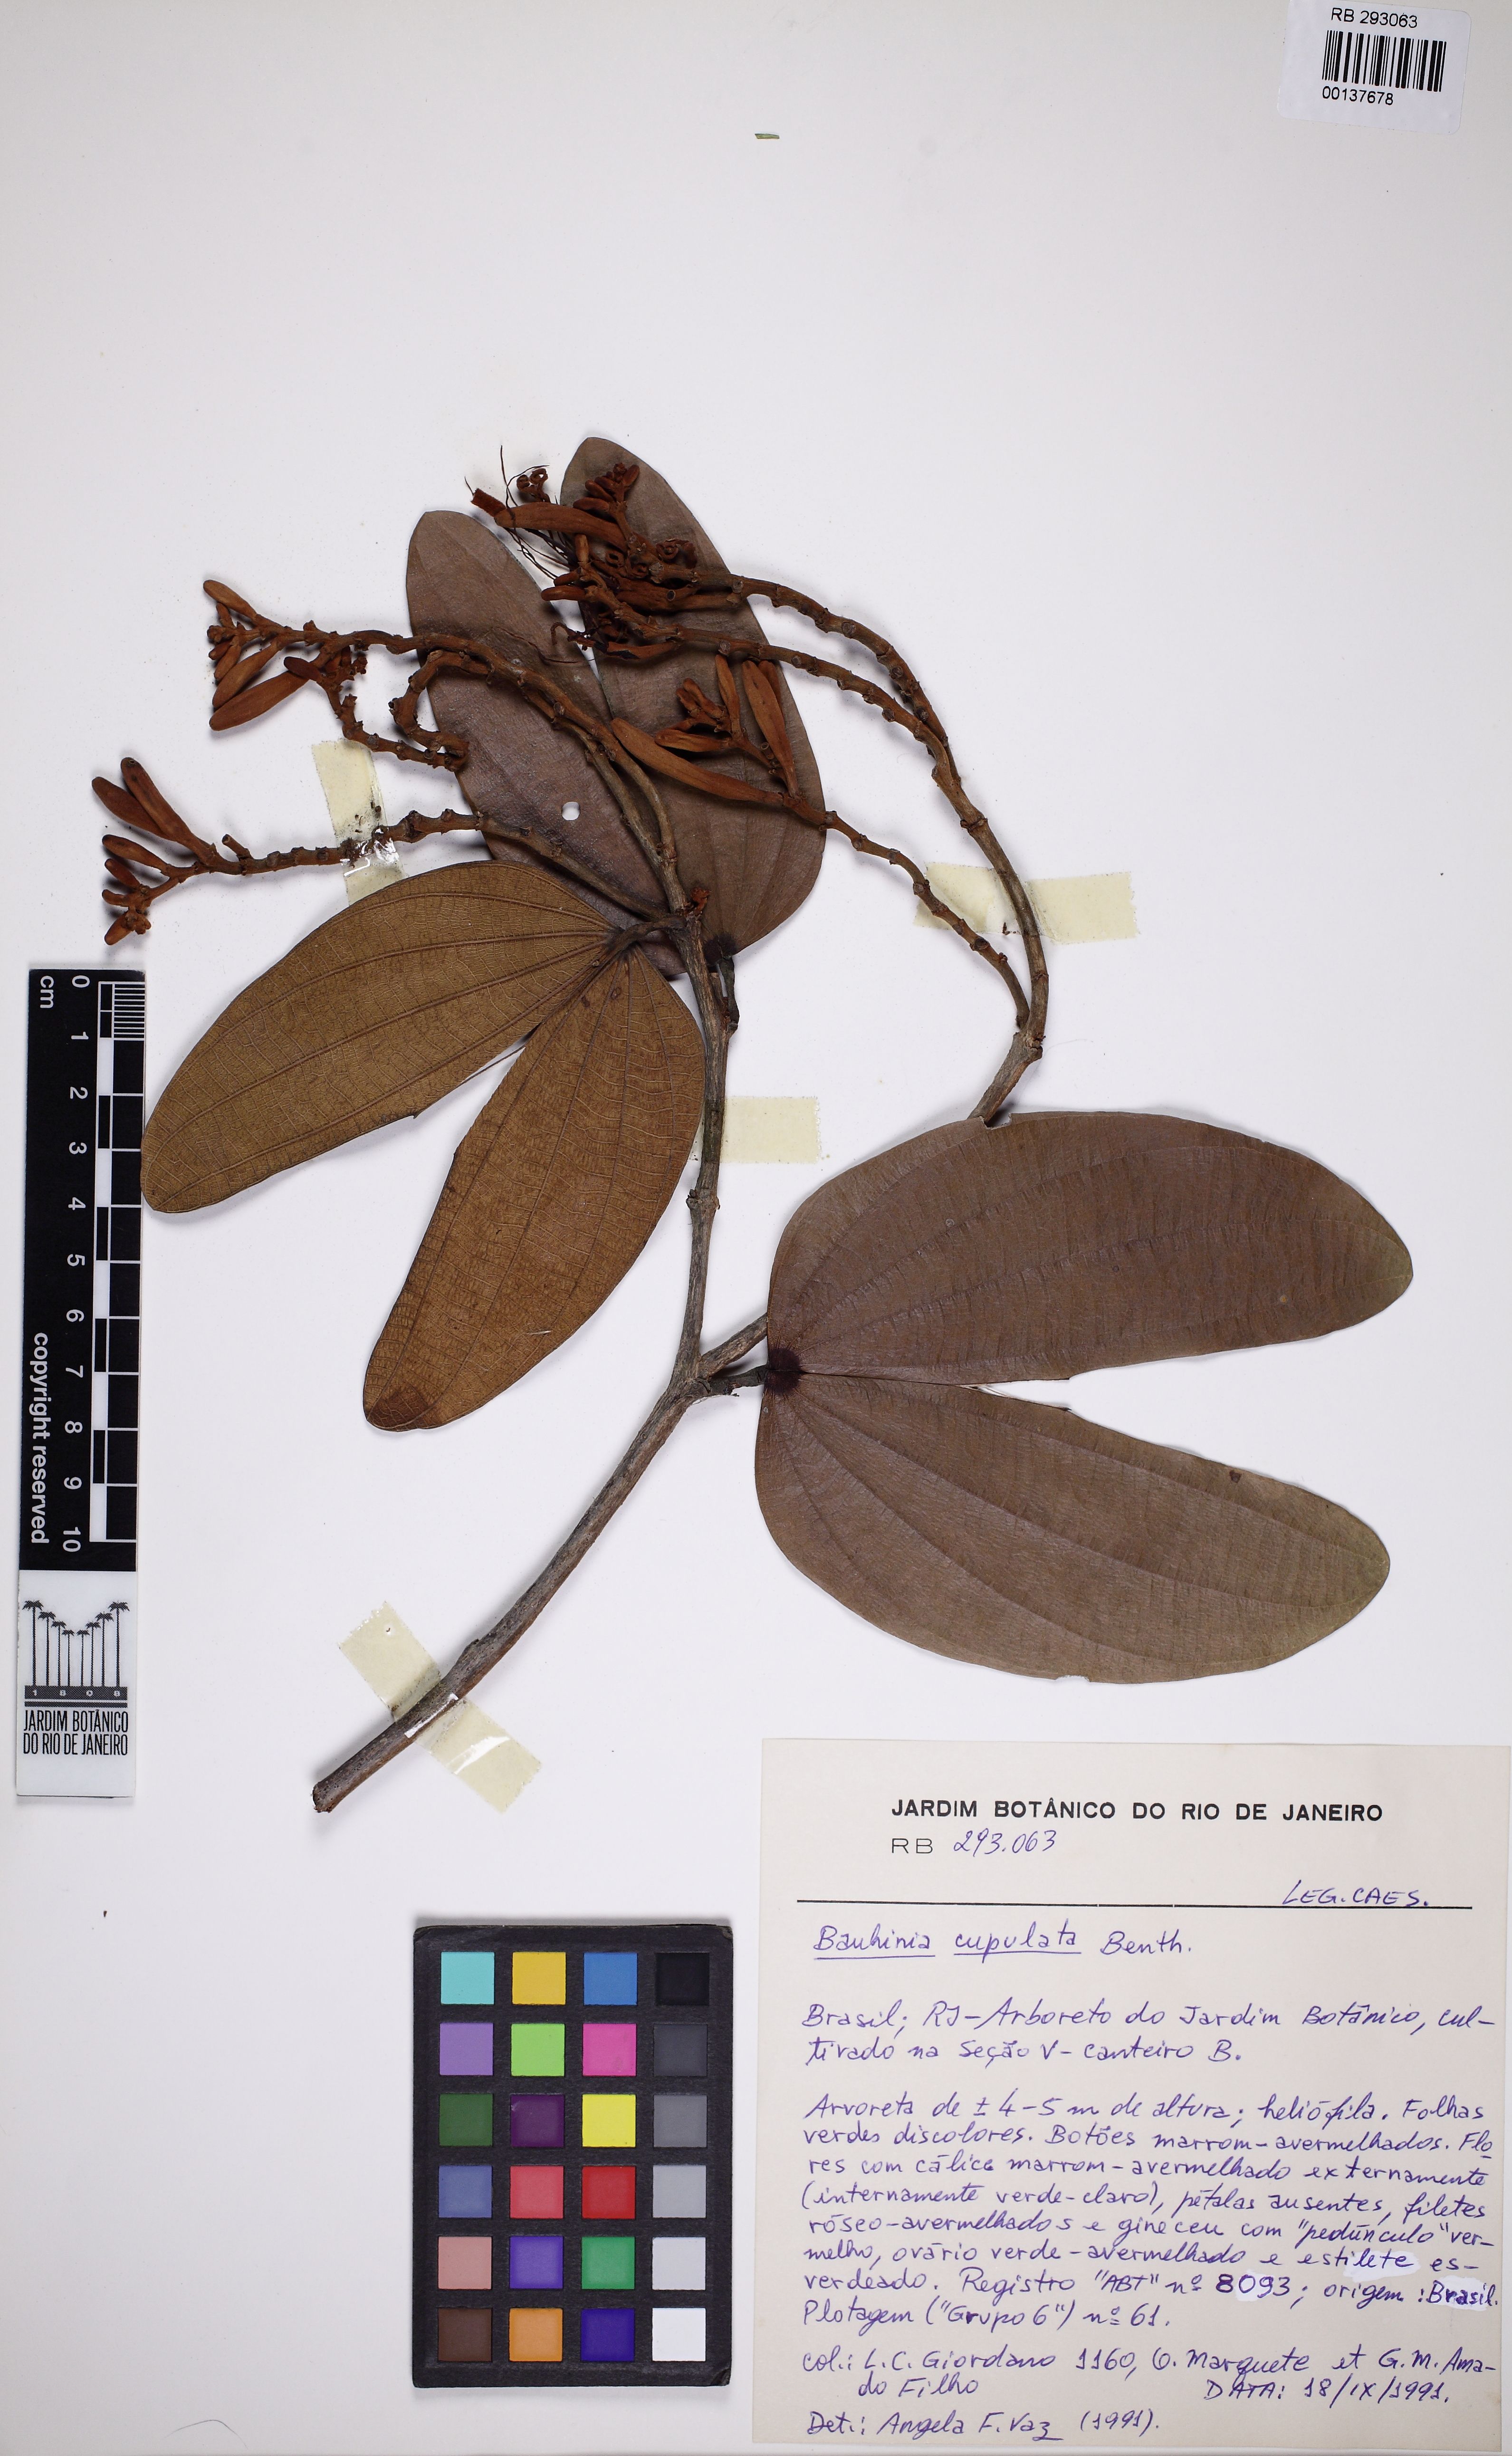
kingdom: Plantae
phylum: Tracheophyta
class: Magnoliopsida
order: Fabales
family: Fabaceae
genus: Bauhinia
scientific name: Bauhinia cupulata
